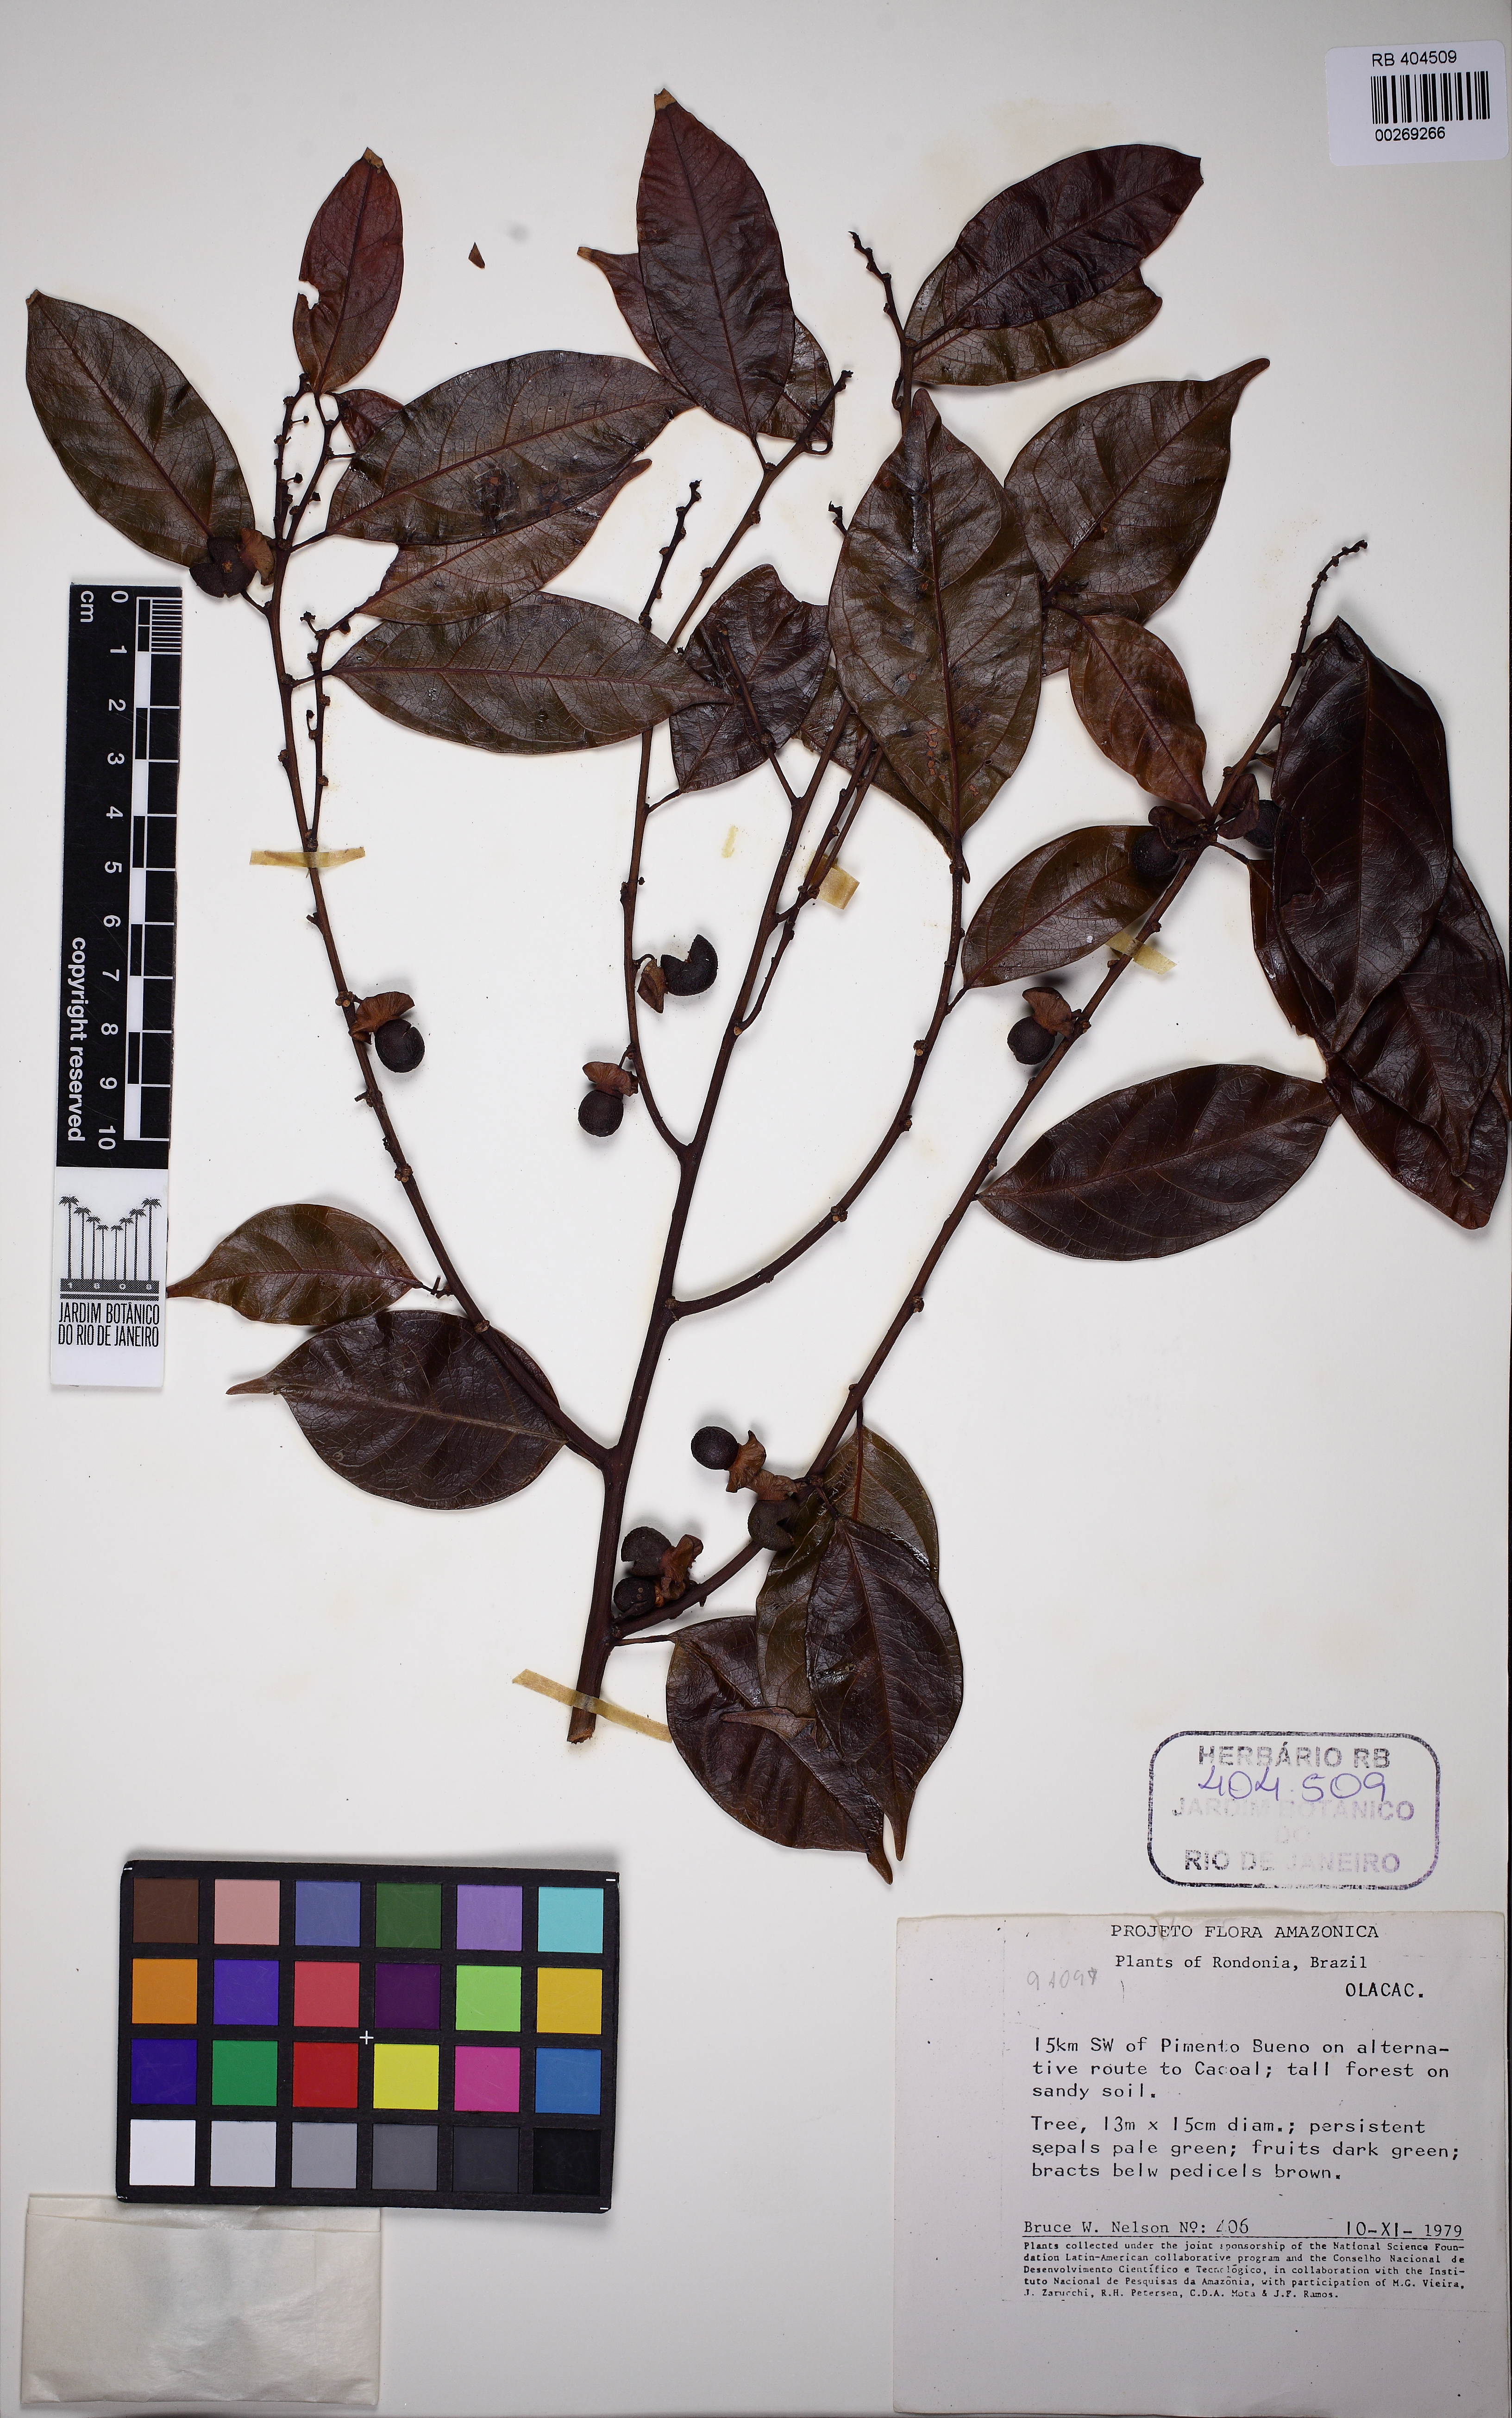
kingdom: Plantae
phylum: Tracheophyta
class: Magnoliopsida
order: Santalales
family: Erythropalaceae
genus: Heisteria
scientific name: Heisteria barbata
